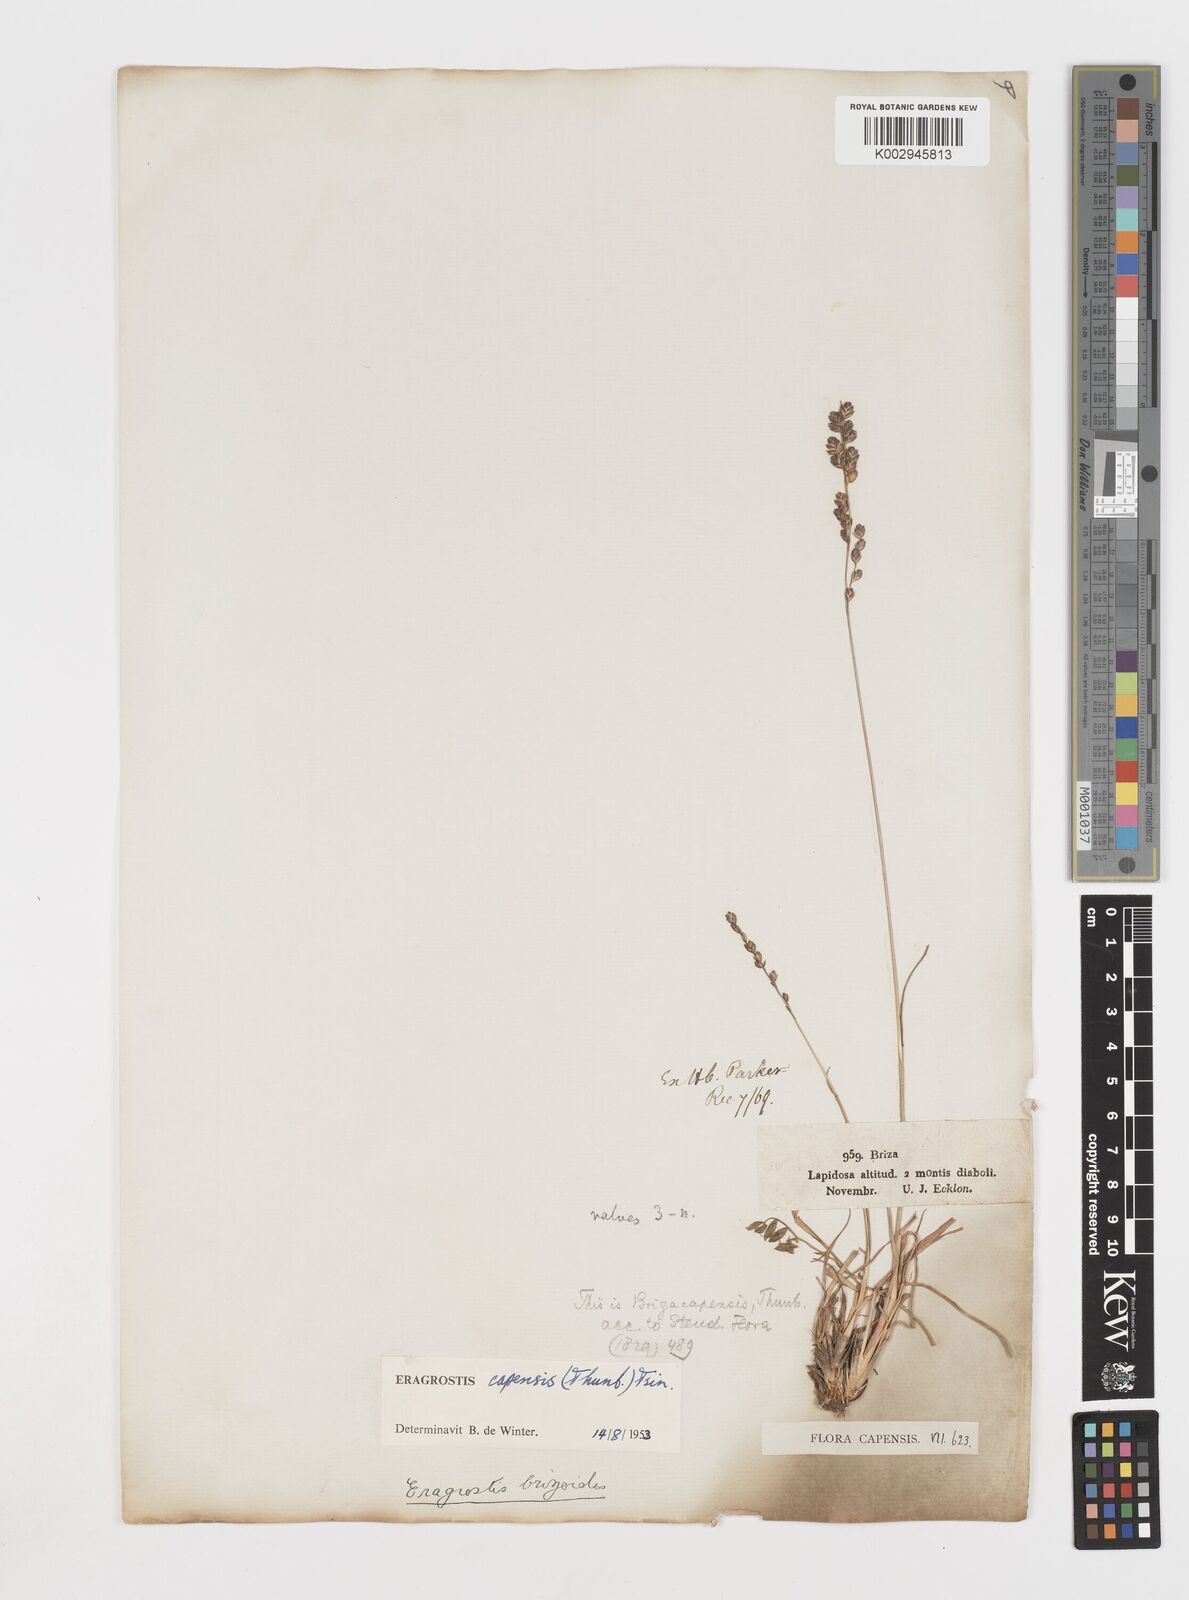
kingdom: Plantae
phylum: Tracheophyta
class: Liliopsida
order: Poales
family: Poaceae
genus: Eragrostis
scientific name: Eragrostis capensis
